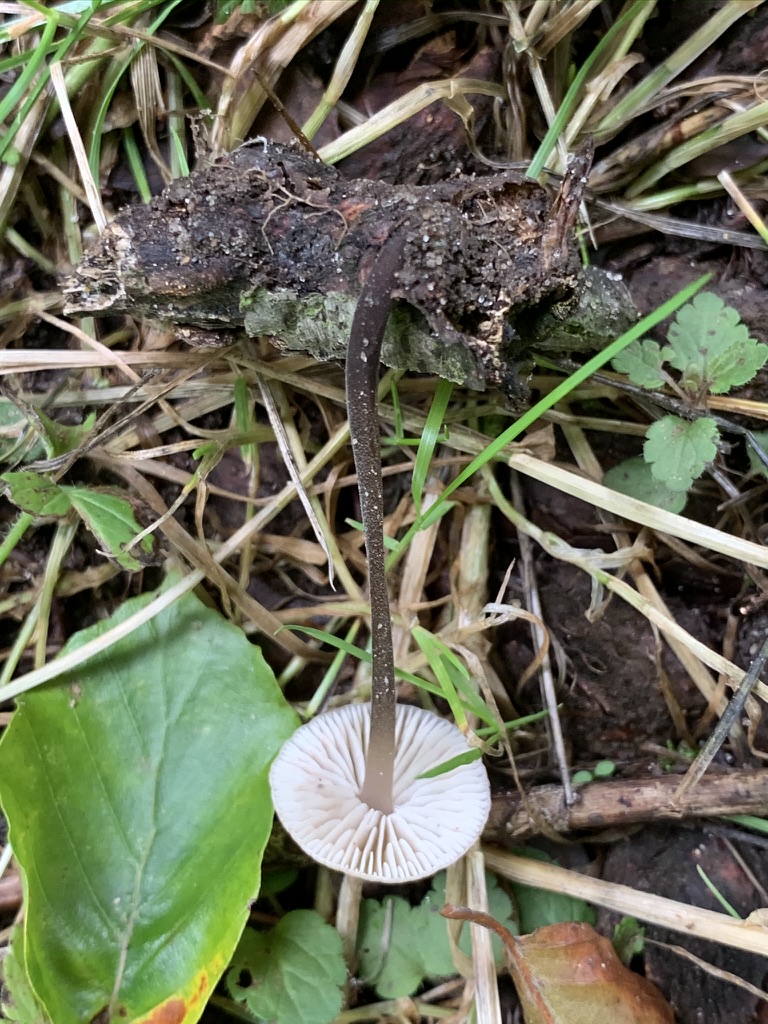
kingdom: Fungi
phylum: Basidiomycota
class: Agaricomycetes
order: Agaricales
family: Omphalotaceae
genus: Mycetinis
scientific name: Mycetinis alliaceus
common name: stor løghat
